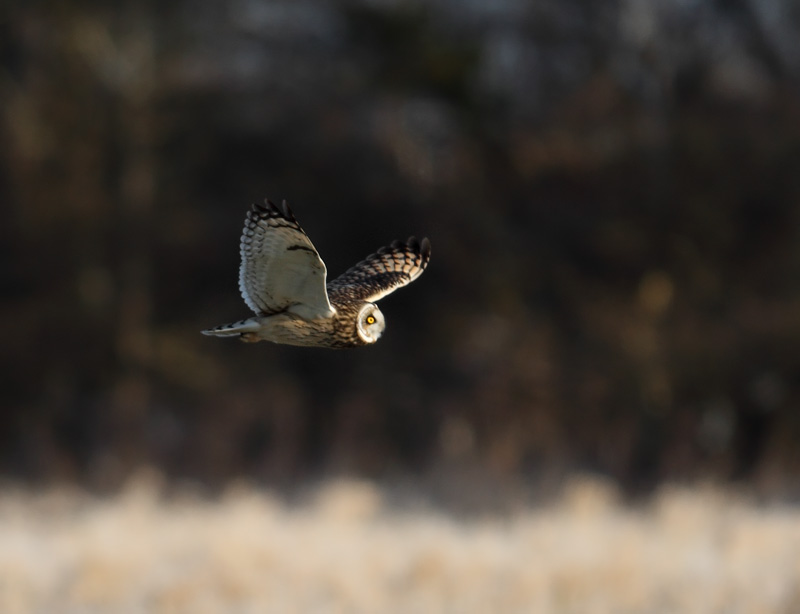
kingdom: Fungi
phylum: Ascomycota
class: Sordariomycetes
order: Xylariales
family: Xylariaceae
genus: Rosellinia
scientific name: Rosellinia corticium
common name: måtte-kulkaviar
